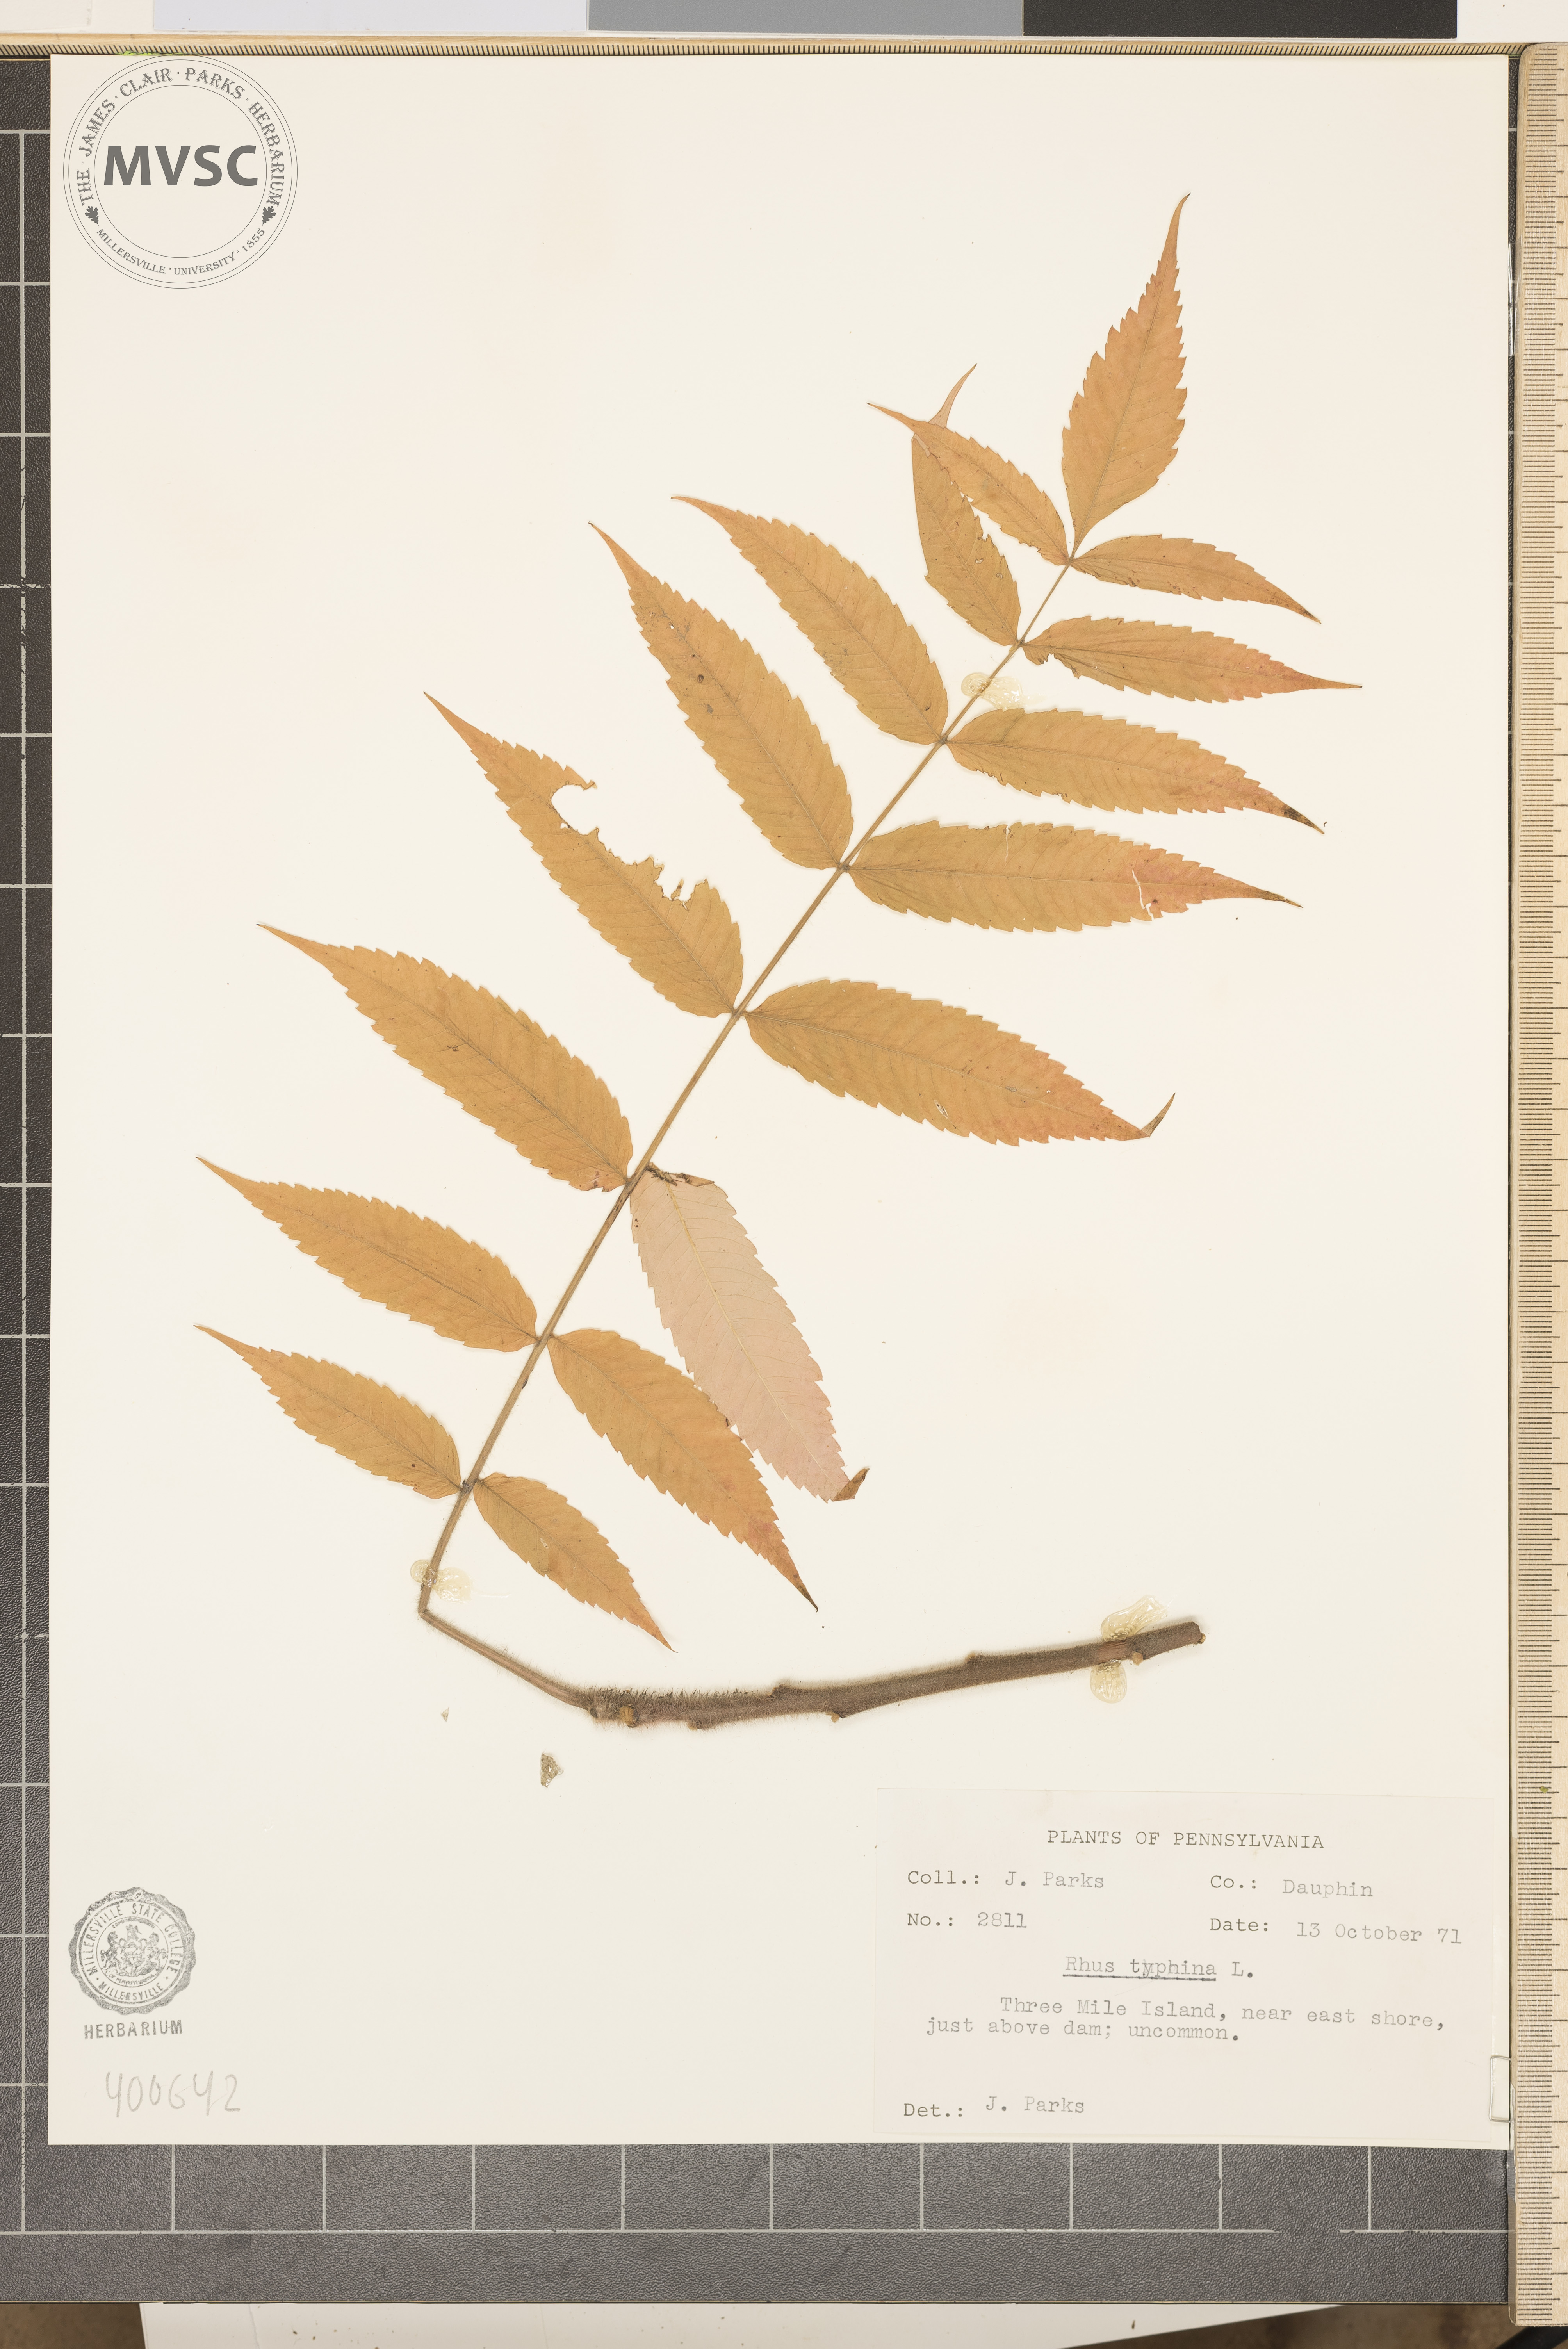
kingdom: Plantae
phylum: Tracheophyta
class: Magnoliopsida
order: Sapindales
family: Anacardiaceae
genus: Rhus
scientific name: Rhus typhina
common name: sumac
